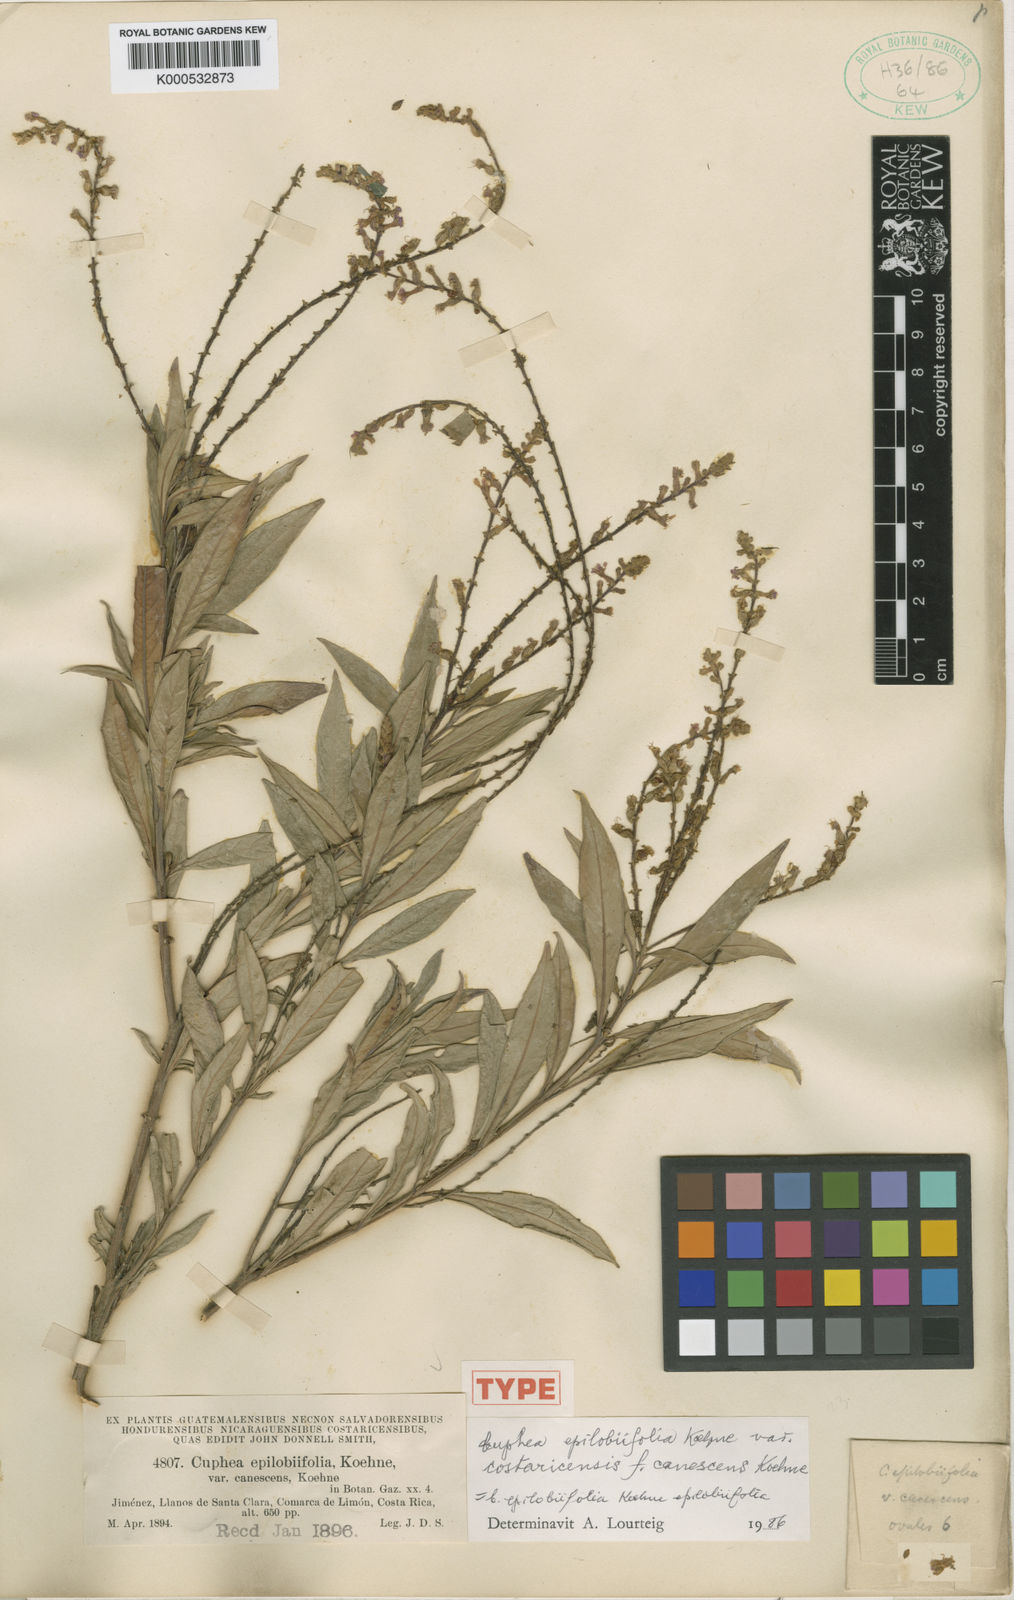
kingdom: Plantae
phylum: Tracheophyta
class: Magnoliopsida
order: Myrtales
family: Lythraceae
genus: Cuphea
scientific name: Cuphea epilobiifolia
